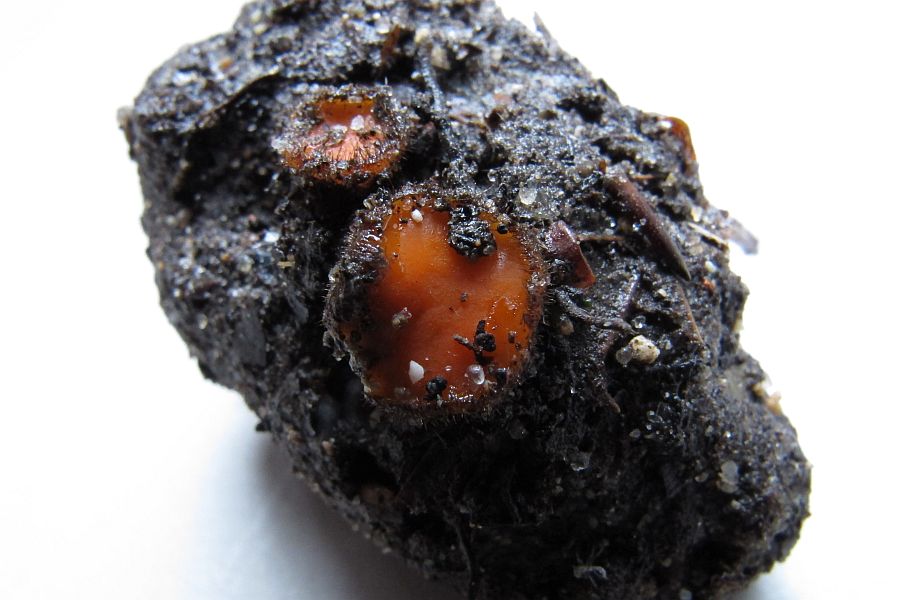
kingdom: Fungi
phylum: Ascomycota
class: Pezizomycetes
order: Pezizales
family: Pyronemataceae
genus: Scutellinia
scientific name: Scutellinia scutellata
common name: frynset skjoldbæger
